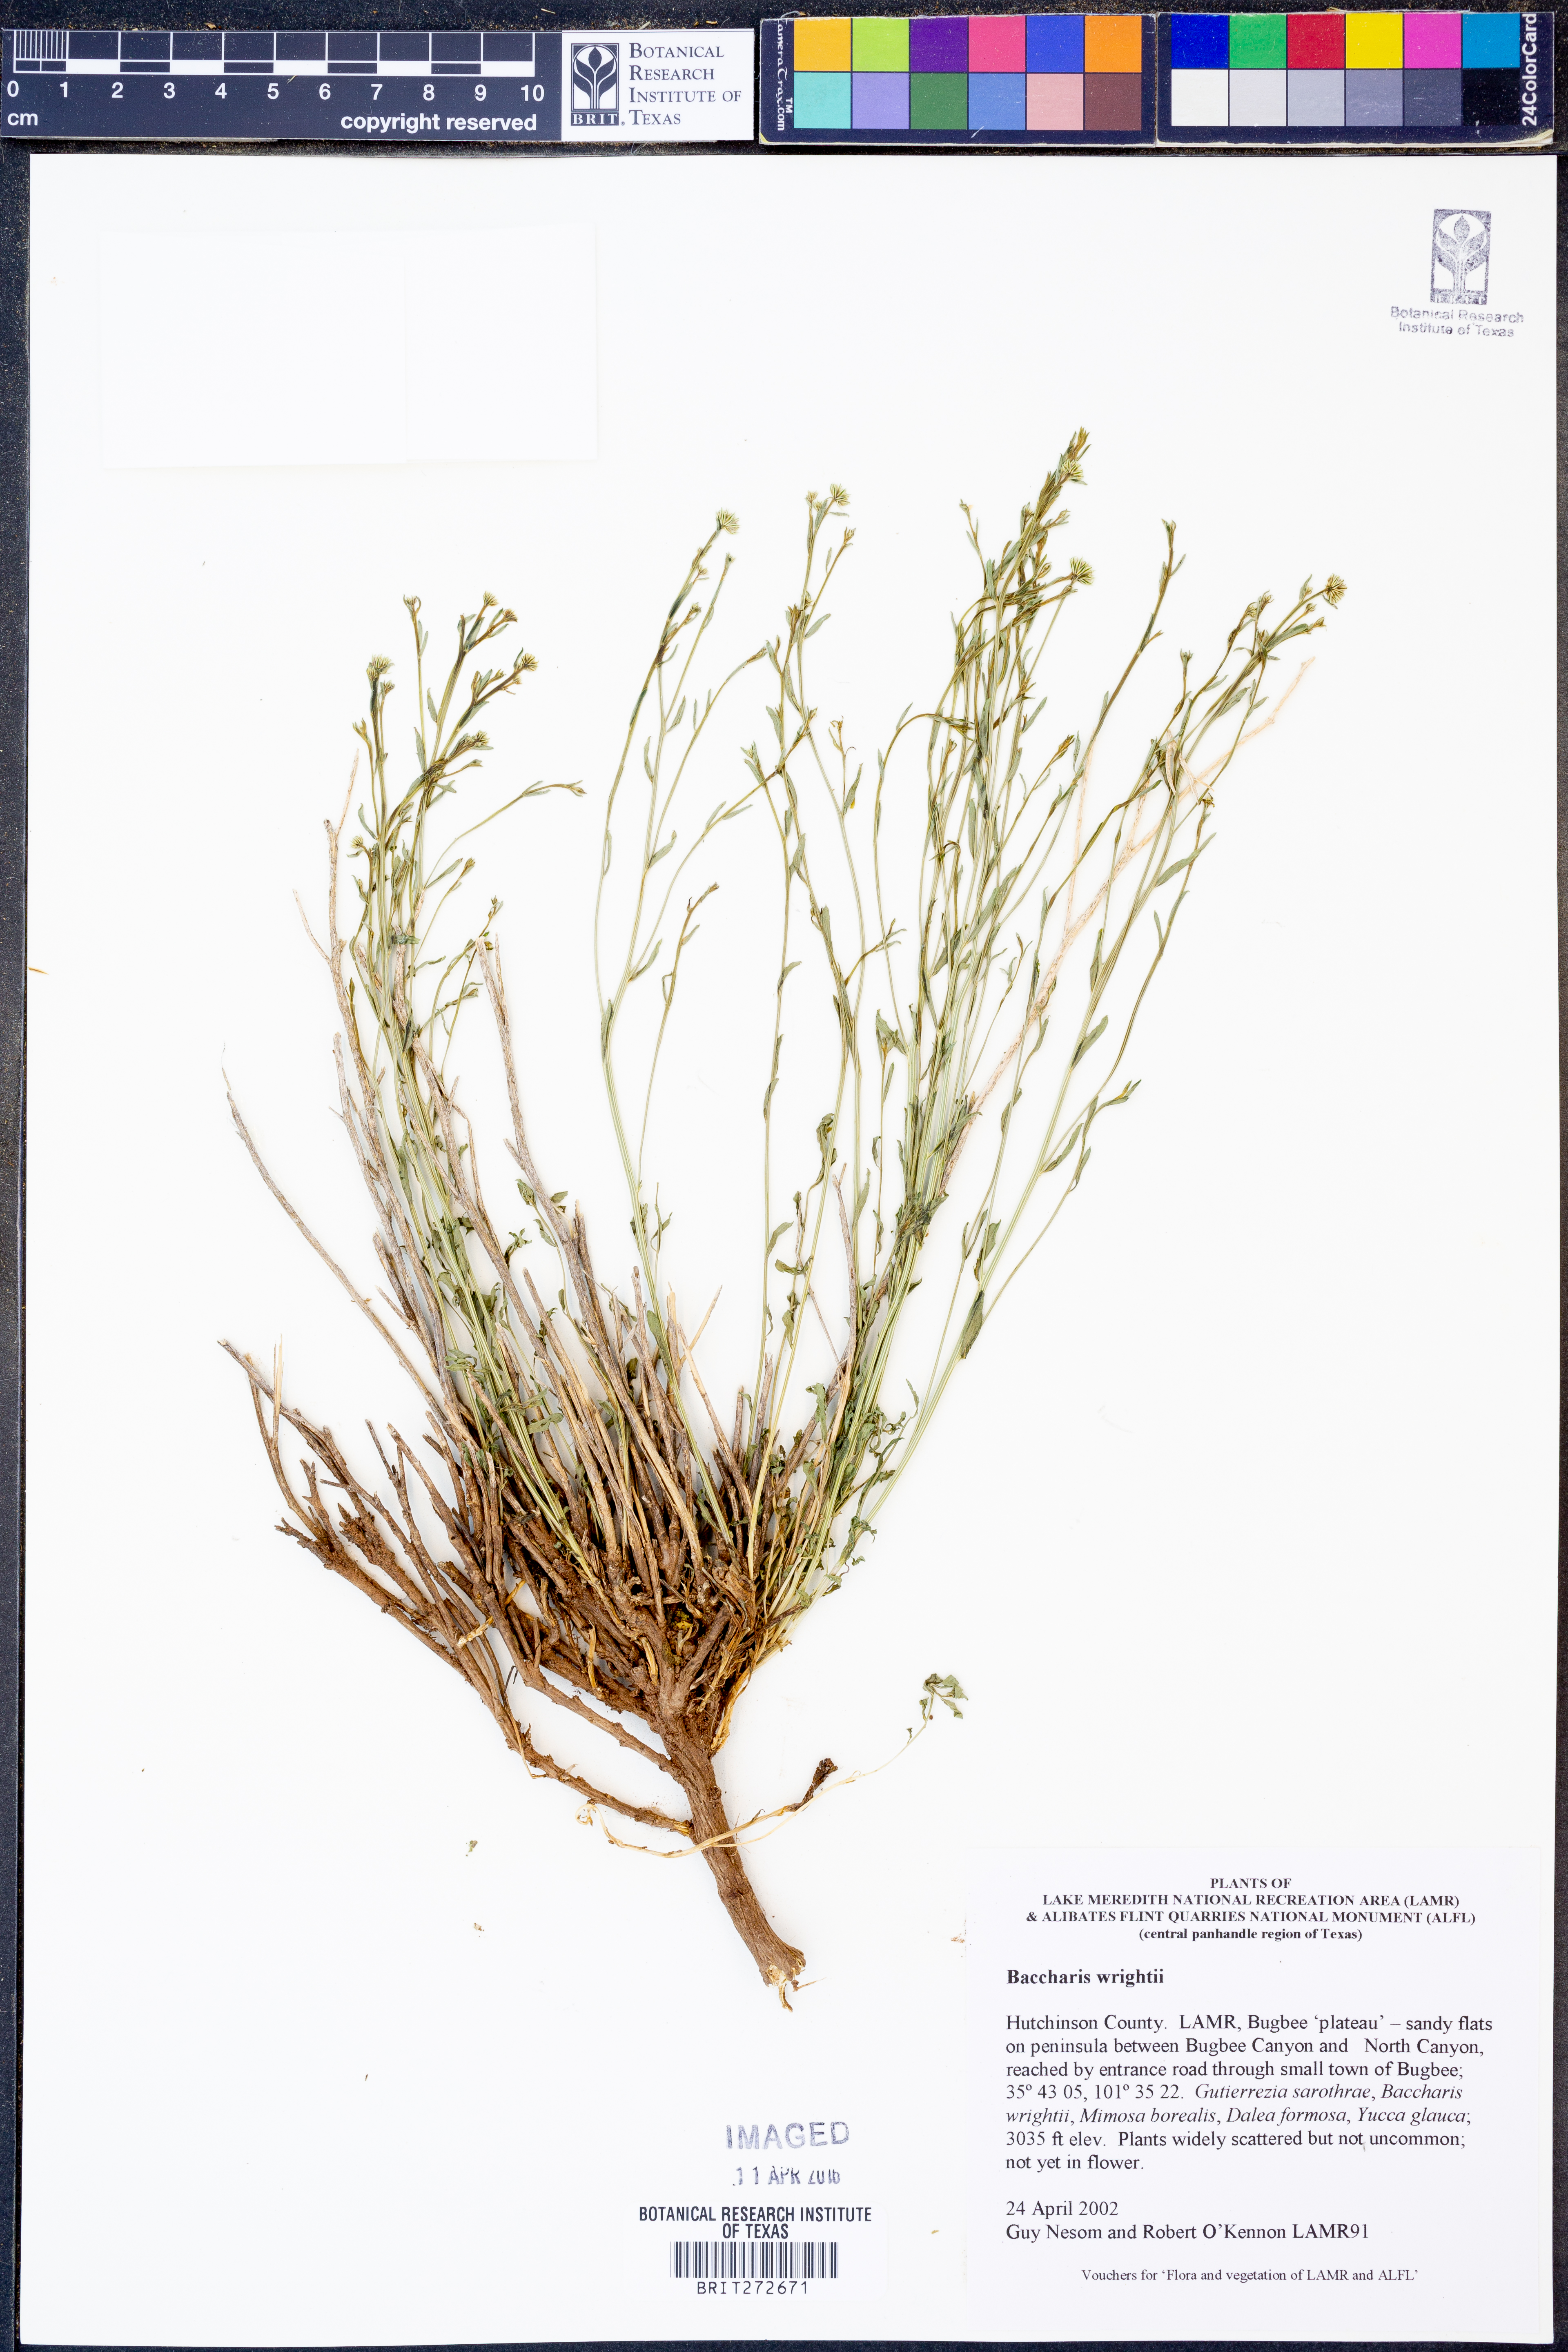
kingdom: Plantae
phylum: Tracheophyta
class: Magnoliopsida
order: Asterales
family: Asteraceae
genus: Baccharis
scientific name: Baccharis wrightii
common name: Wright's baccharis
